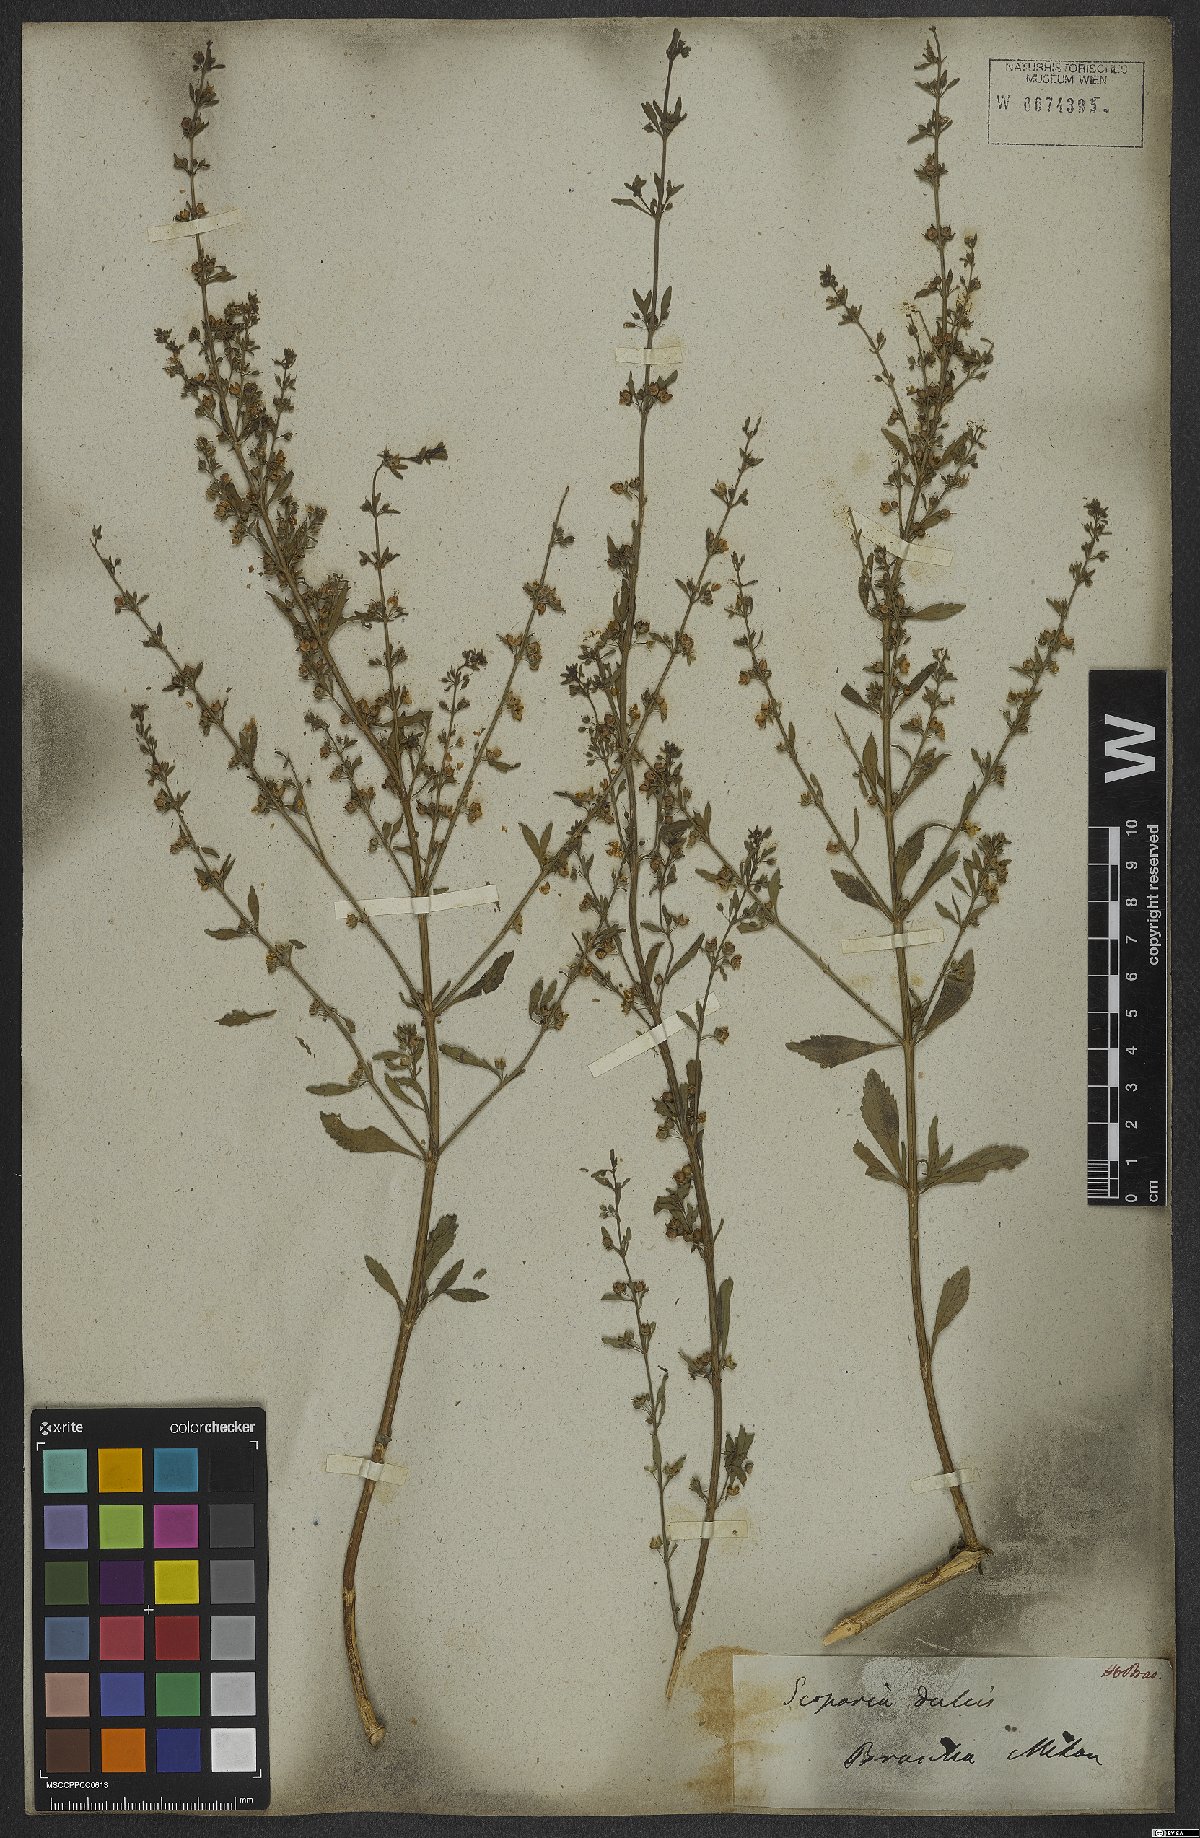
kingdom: Plantae
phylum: Tracheophyta
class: Magnoliopsida
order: Lamiales
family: Plantaginaceae
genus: Scoparia
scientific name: Scoparia dulcis
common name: Scoparia-weed
